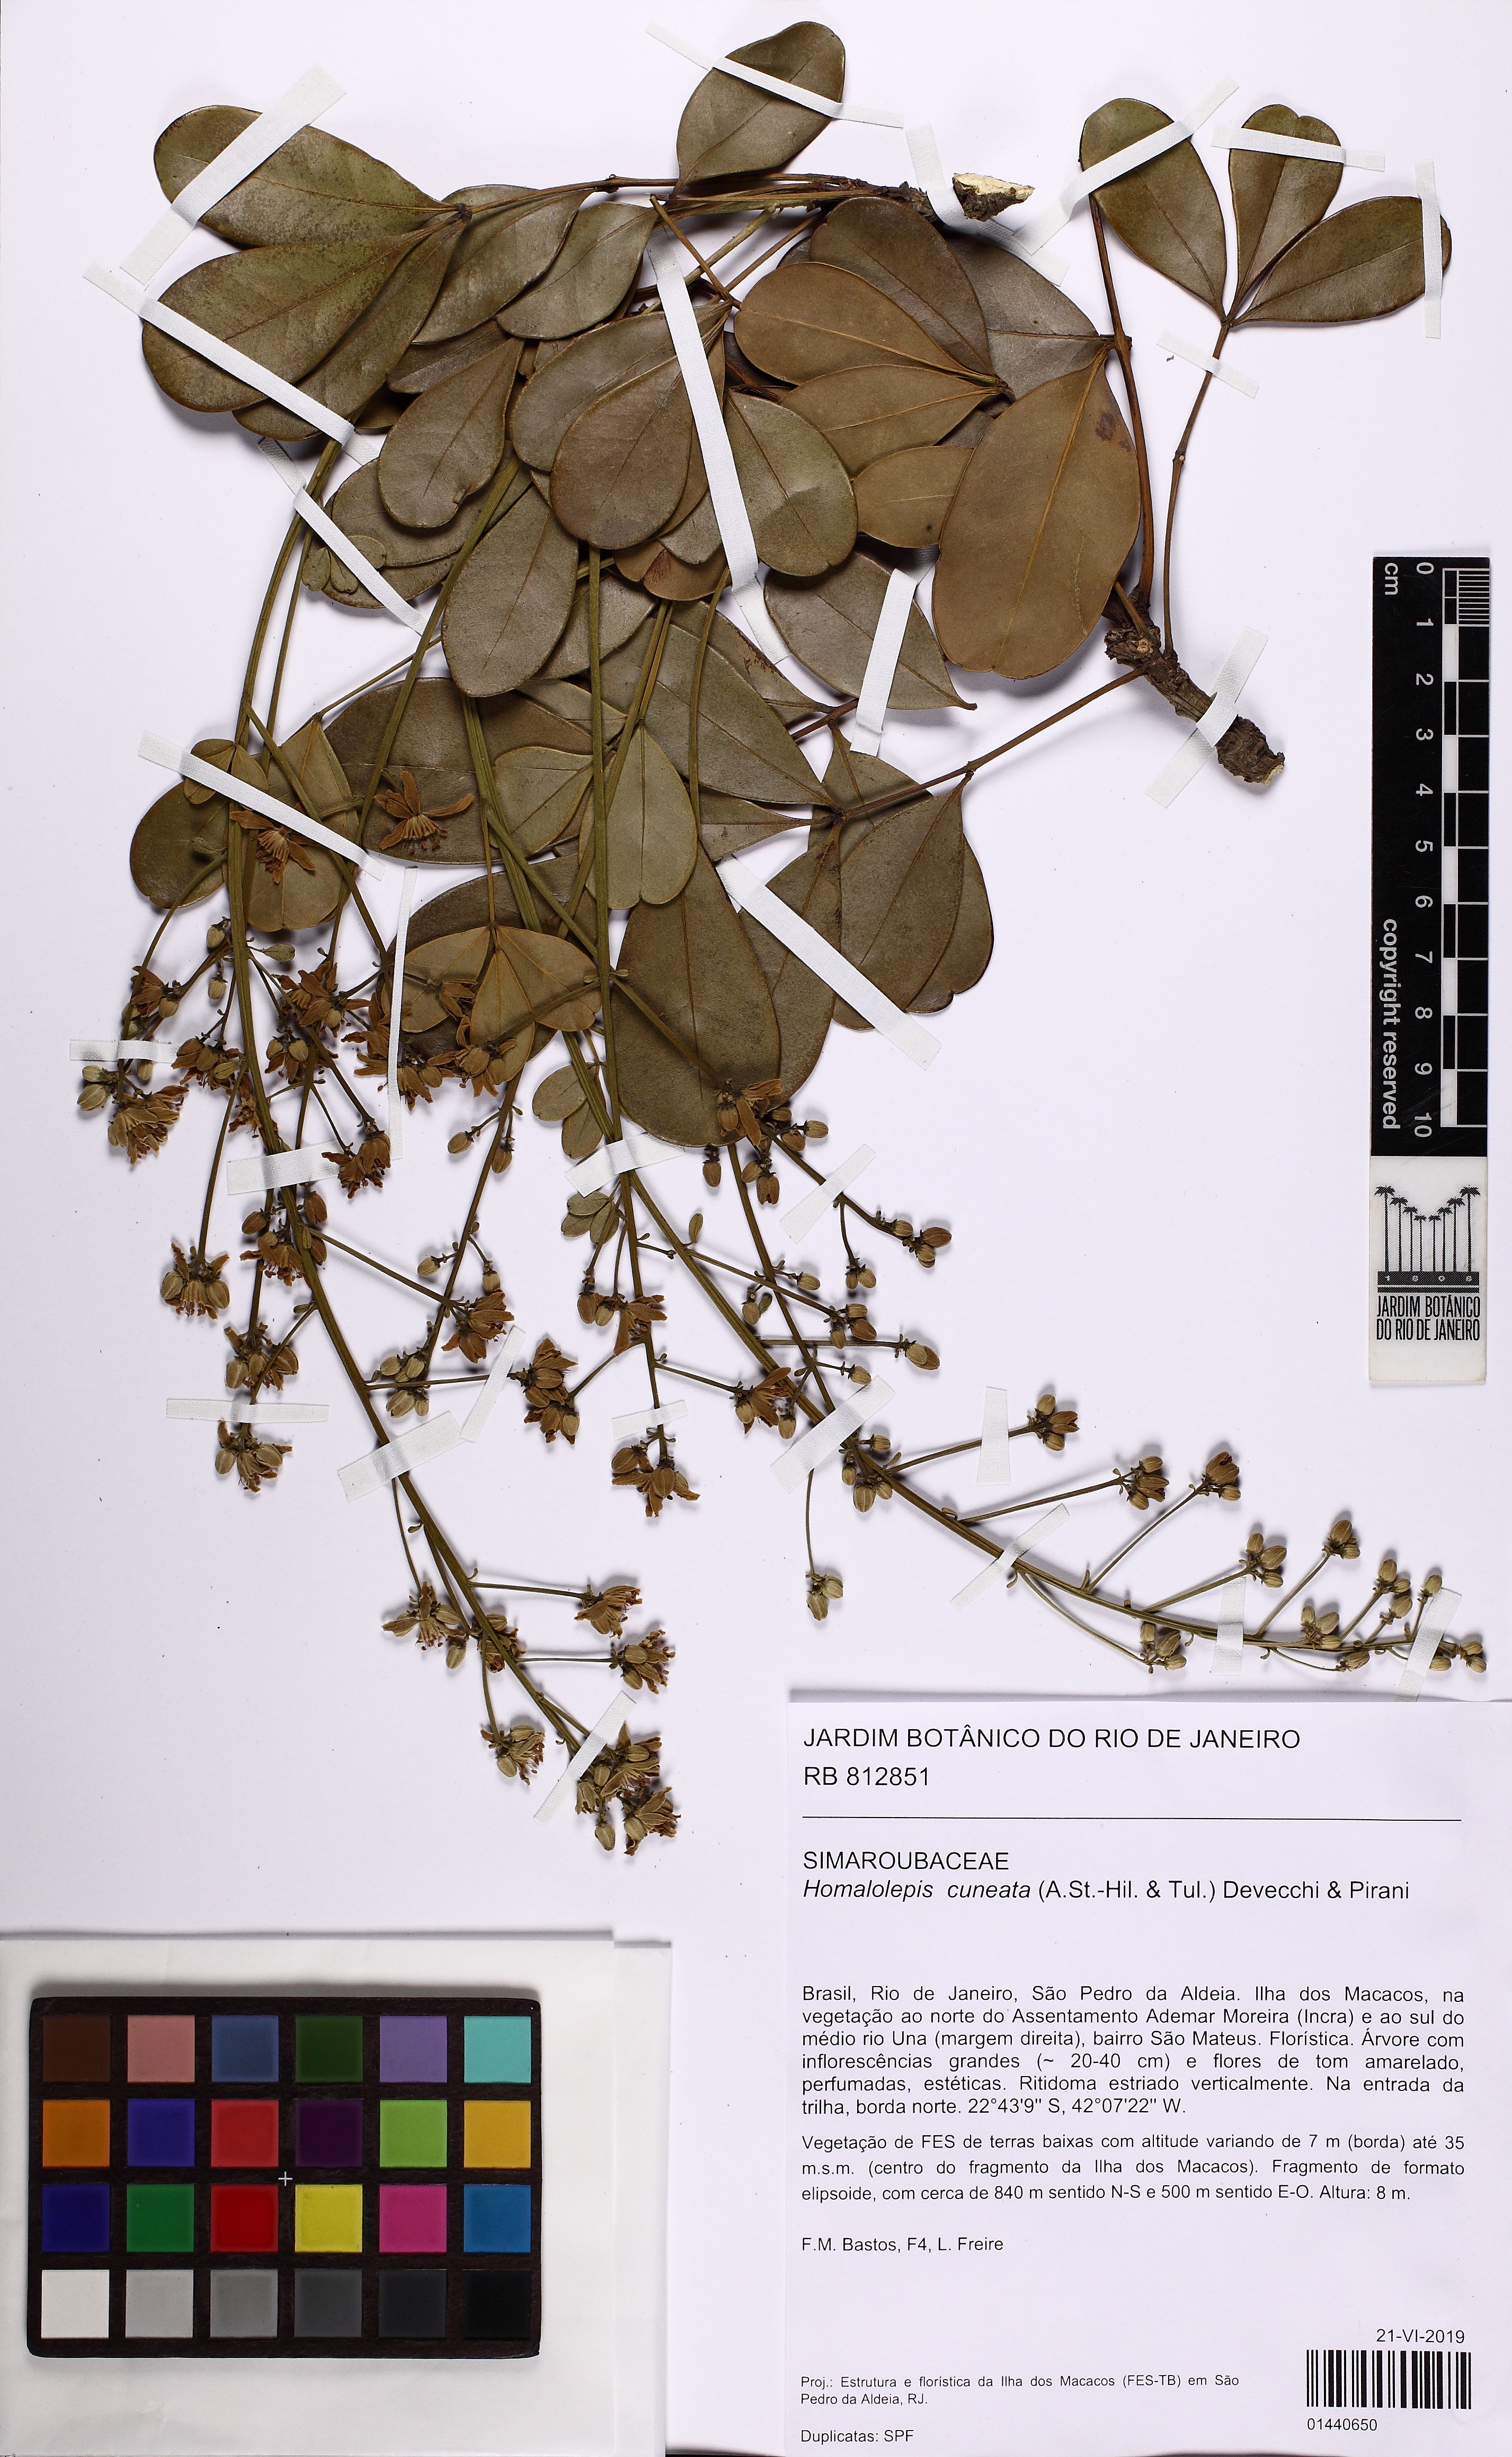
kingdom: Plantae
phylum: Tracheophyta
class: Magnoliopsida
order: Sapindales
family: Simaroubaceae
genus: Homalolepis
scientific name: Homalolepis cuneata
